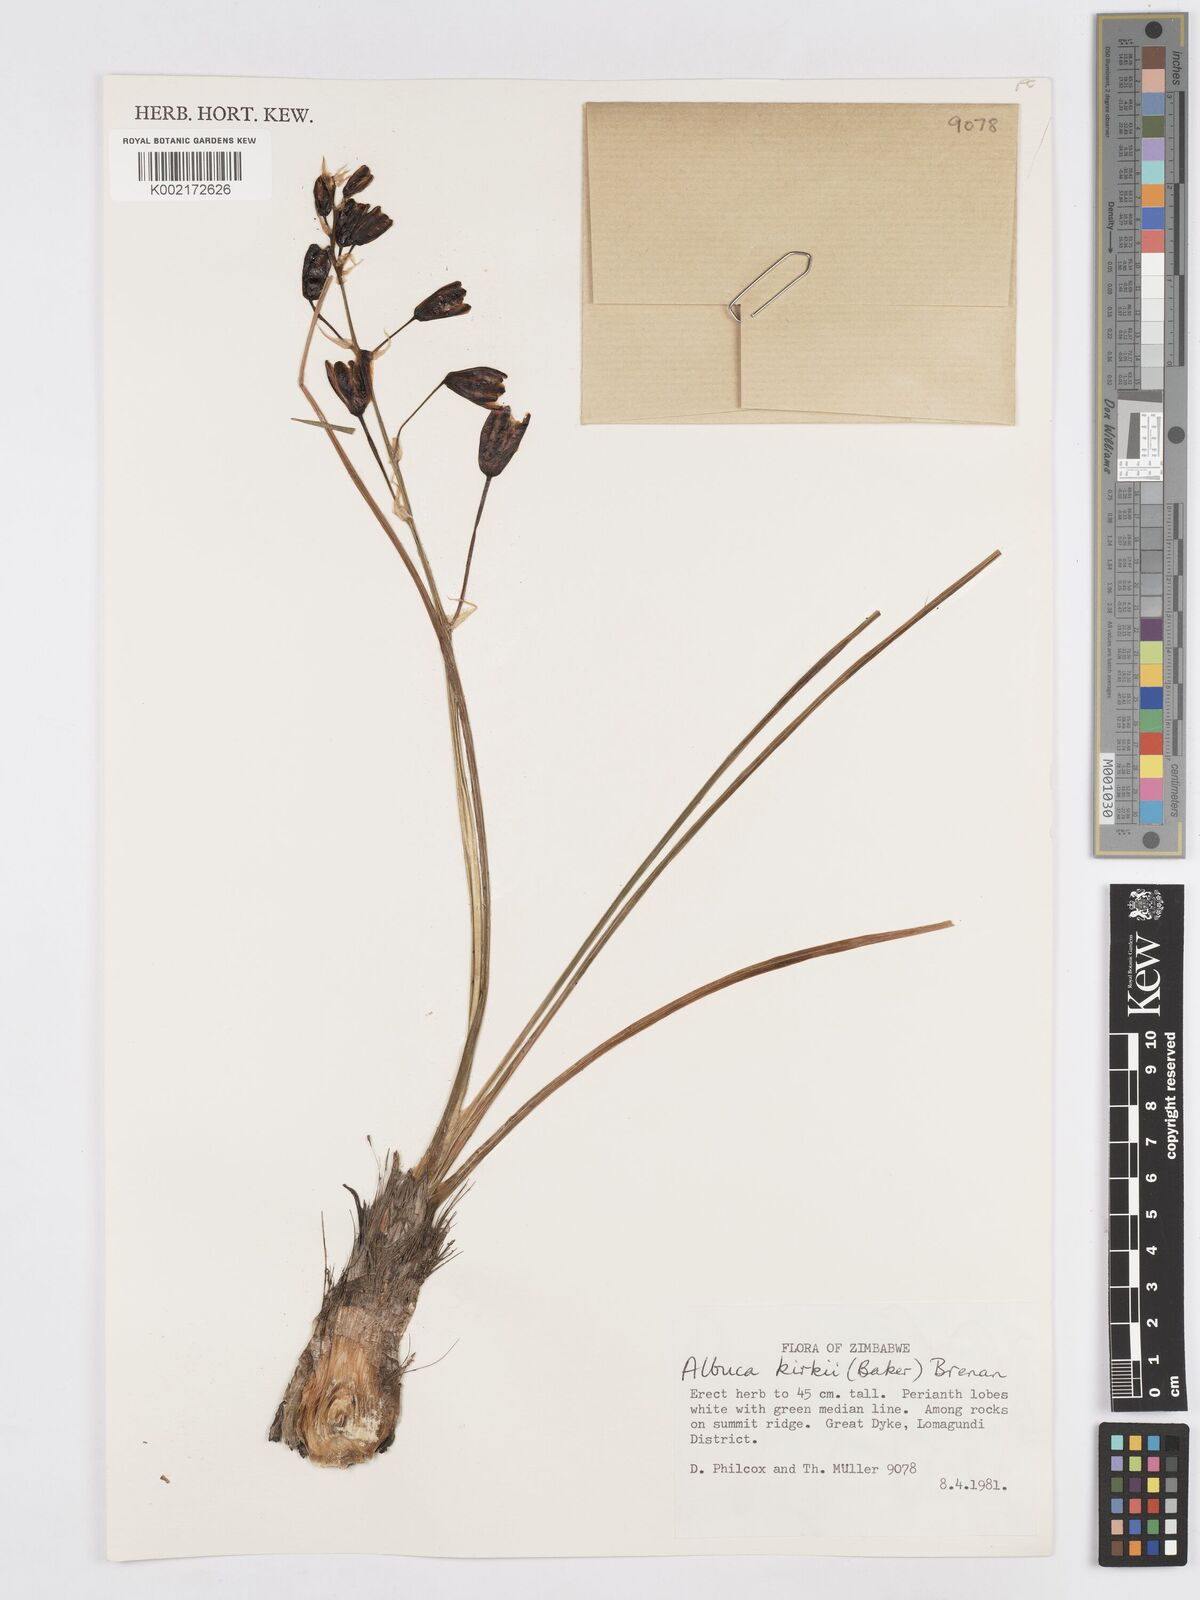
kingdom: Plantae
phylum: Tracheophyta
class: Liliopsida
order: Asparagales
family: Asparagaceae
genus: Albuca
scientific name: Albuca kirkii
